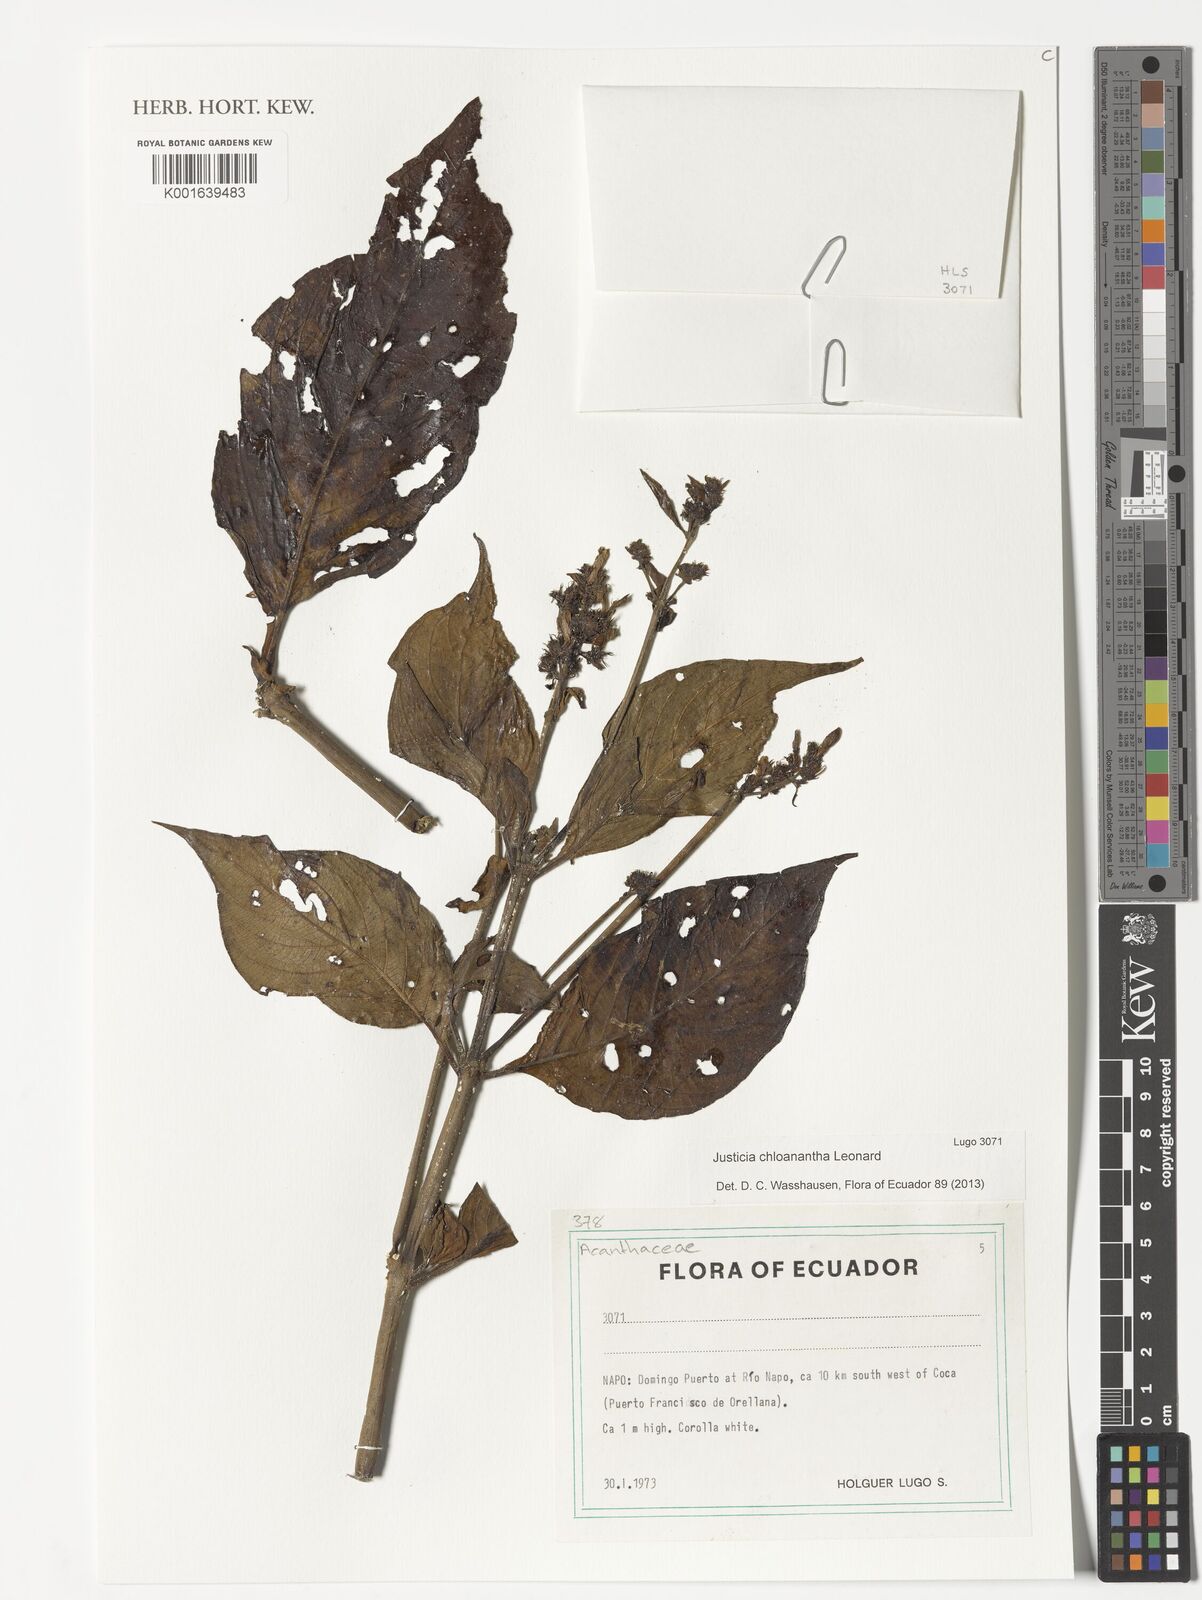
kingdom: Plantae
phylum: Tracheophyta
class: Magnoliopsida
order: Lamiales
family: Acanthaceae
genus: Justicia
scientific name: Justicia chloanantha
